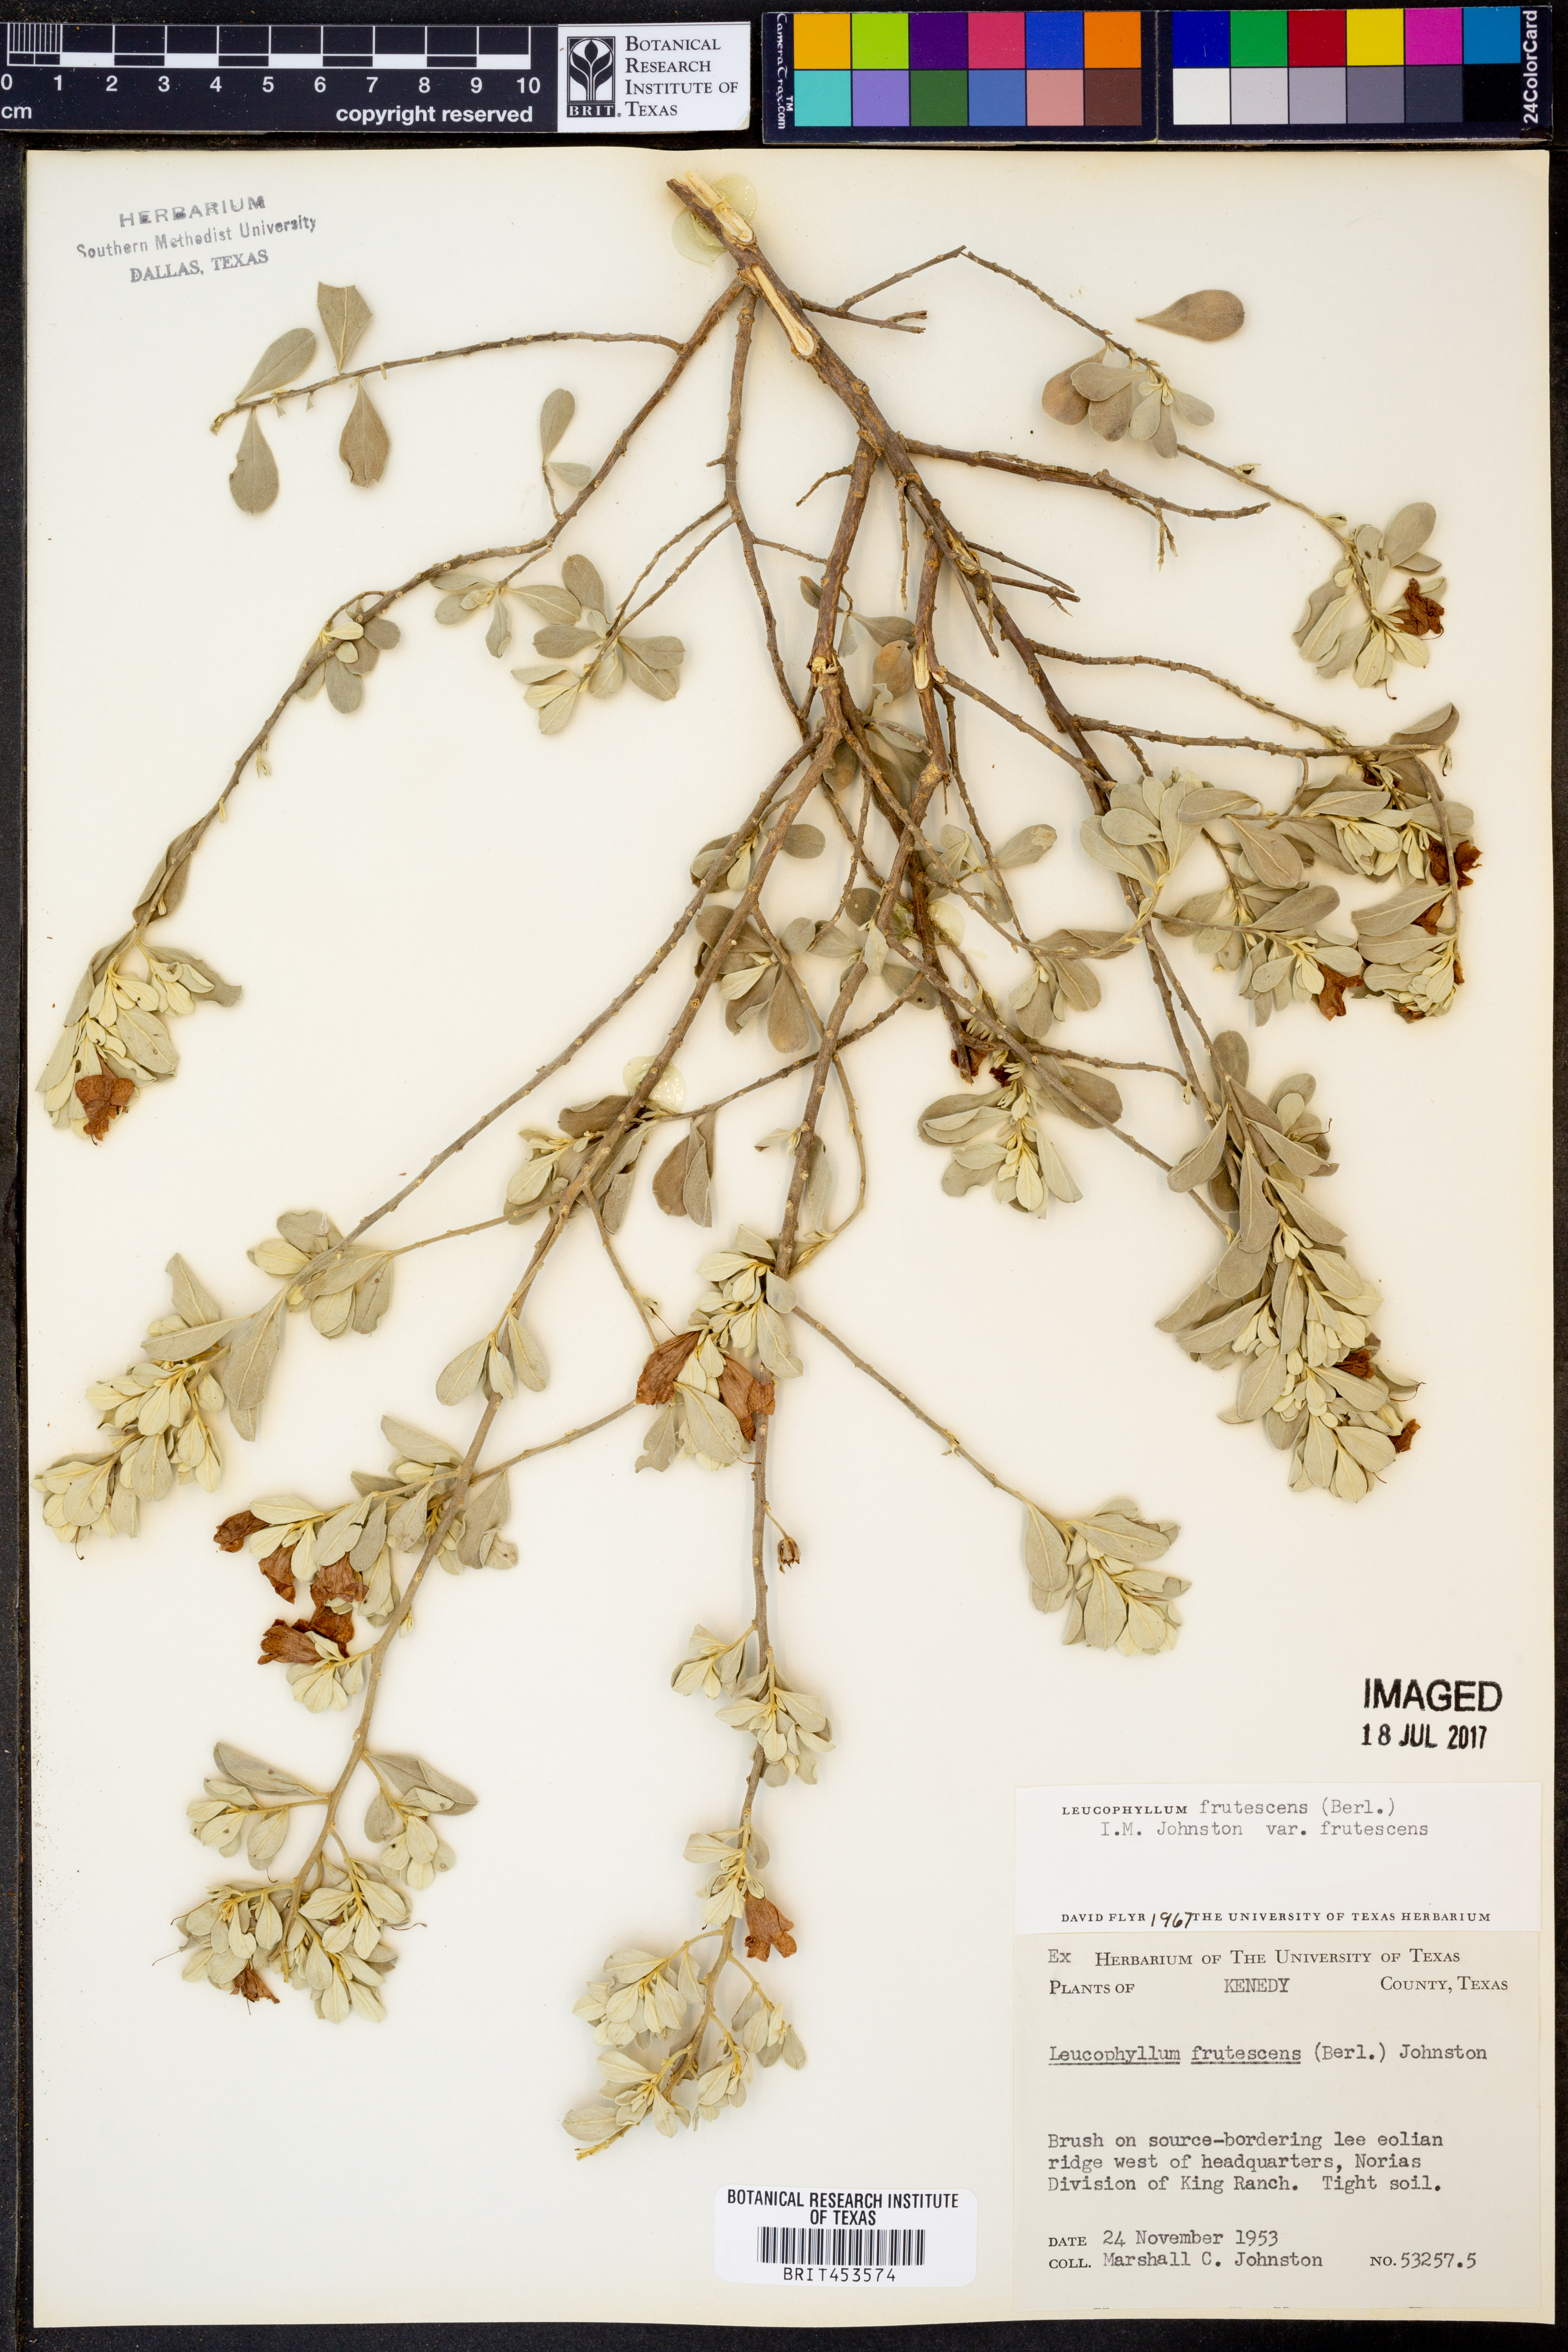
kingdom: Plantae
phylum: Tracheophyta
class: Magnoliopsida
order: Lamiales
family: Scrophulariaceae
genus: Leucophyllum
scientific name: Leucophyllum frutescens
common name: Texas silverleaf
